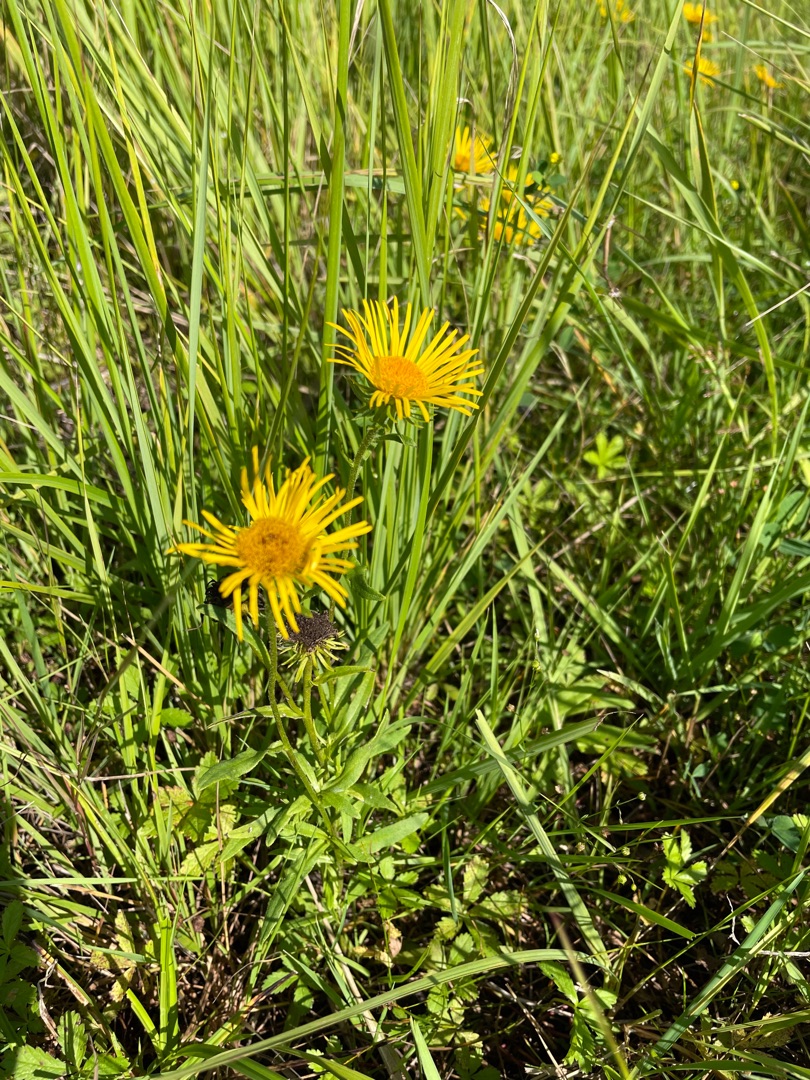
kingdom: Plantae
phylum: Tracheophyta
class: Magnoliopsida
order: Asterales
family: Asteraceae
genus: Pentanema
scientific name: Pentanema salicinum
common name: Pile-alant
